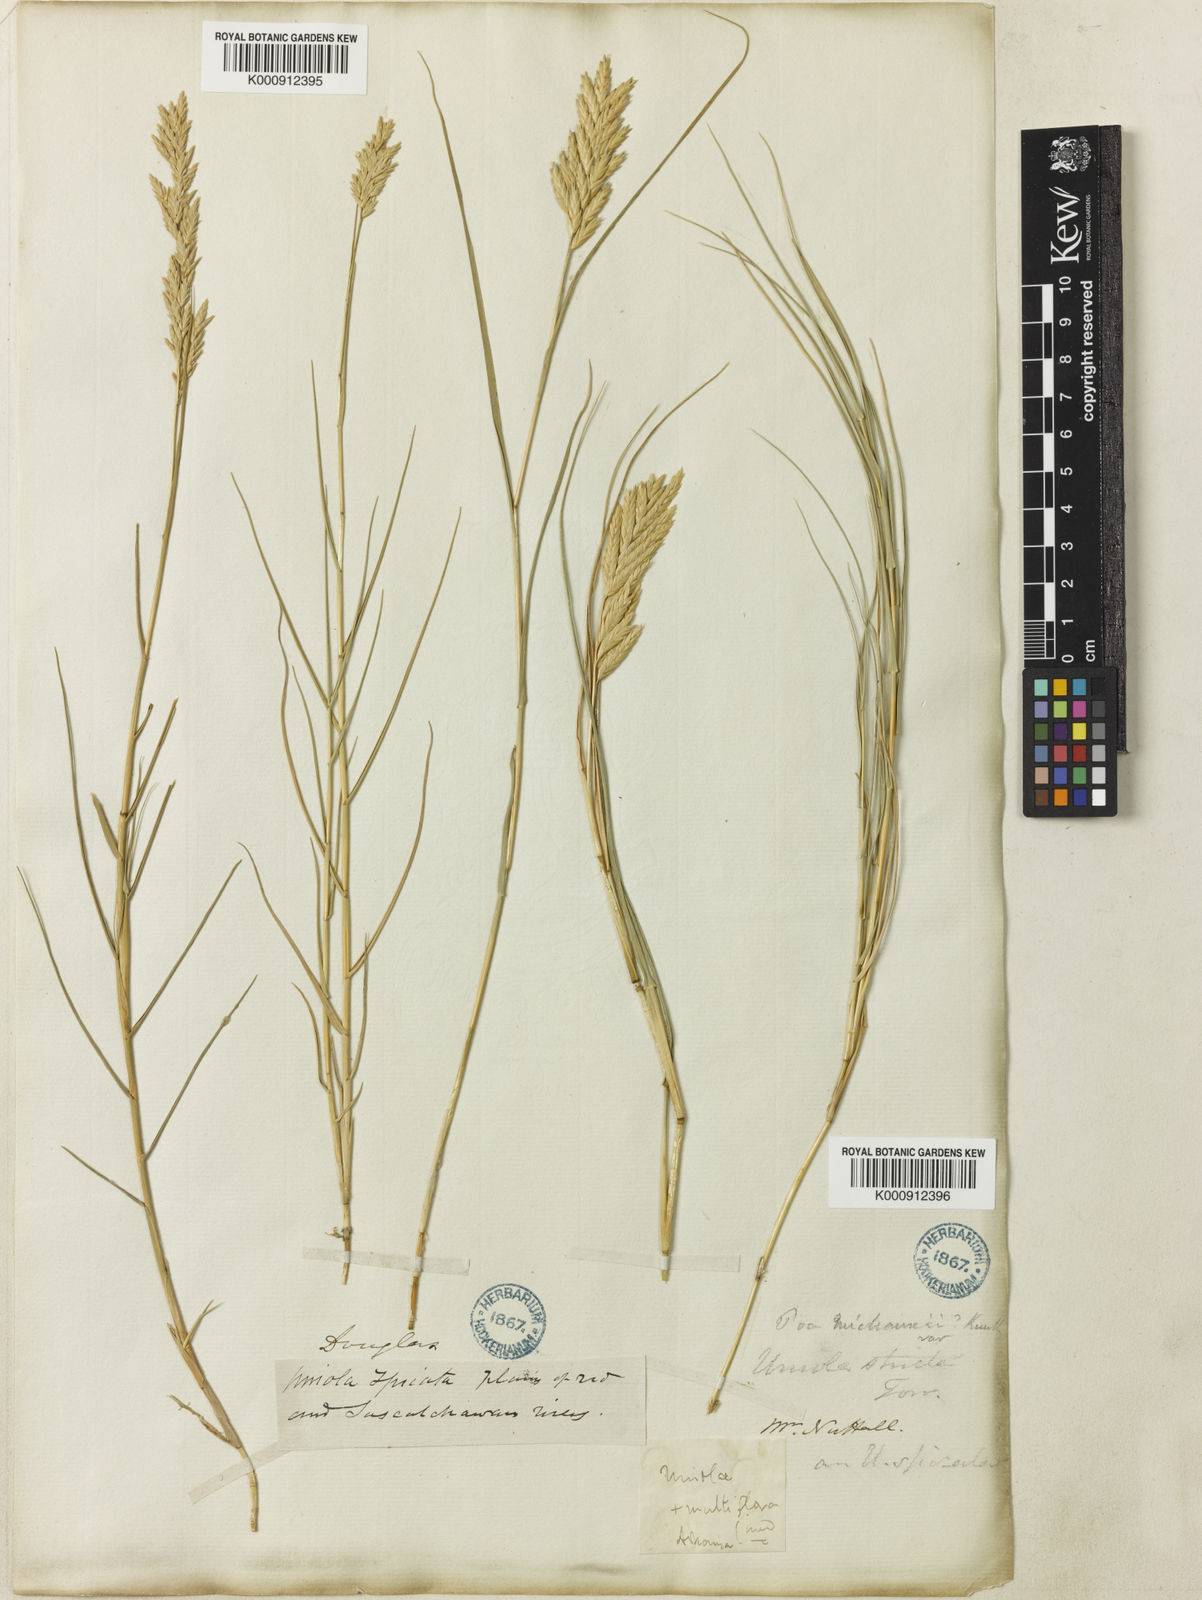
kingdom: Plantae
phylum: Tracheophyta
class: Liliopsida
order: Poales
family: Poaceae
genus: Distichlis
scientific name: Distichlis spicata
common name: Saltgrass
